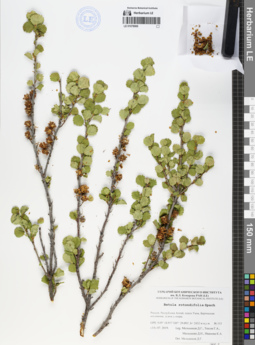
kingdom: Plantae
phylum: Tracheophyta
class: Magnoliopsida
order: Fagales
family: Betulaceae
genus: Betula
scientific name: Betula glandulosa
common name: Dwarf birch
